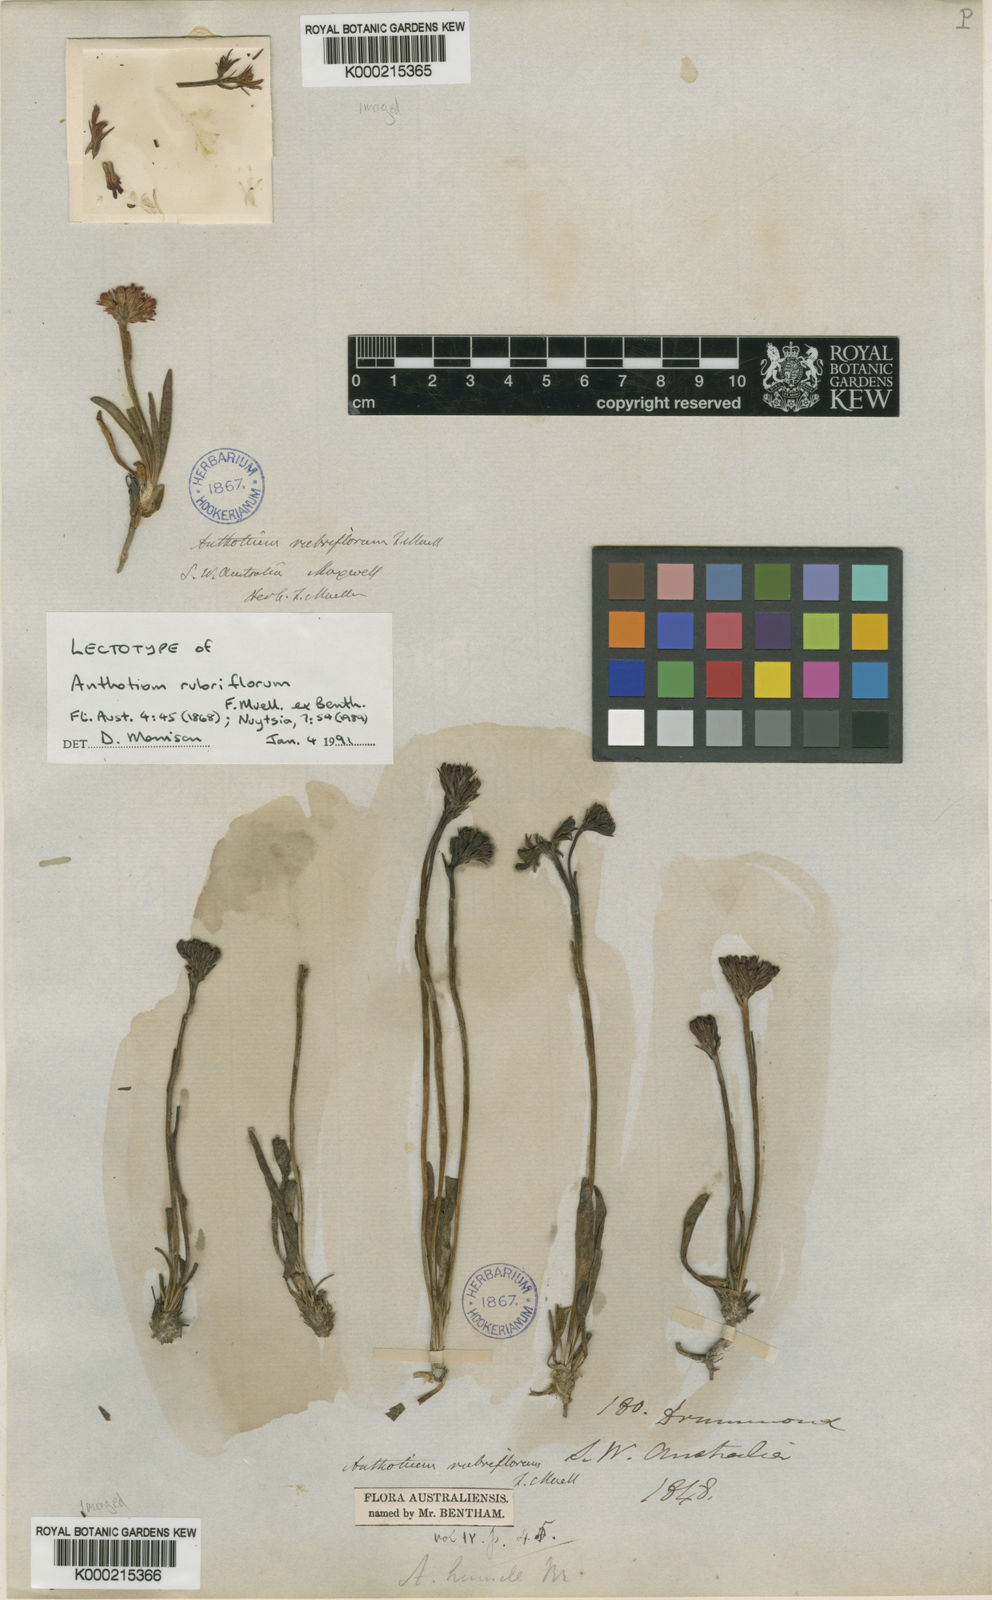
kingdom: Plantae
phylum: Tracheophyta
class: Magnoliopsida
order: Asterales
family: Goodeniaceae
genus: Anthotium
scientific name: Anthotium rubriflorum
